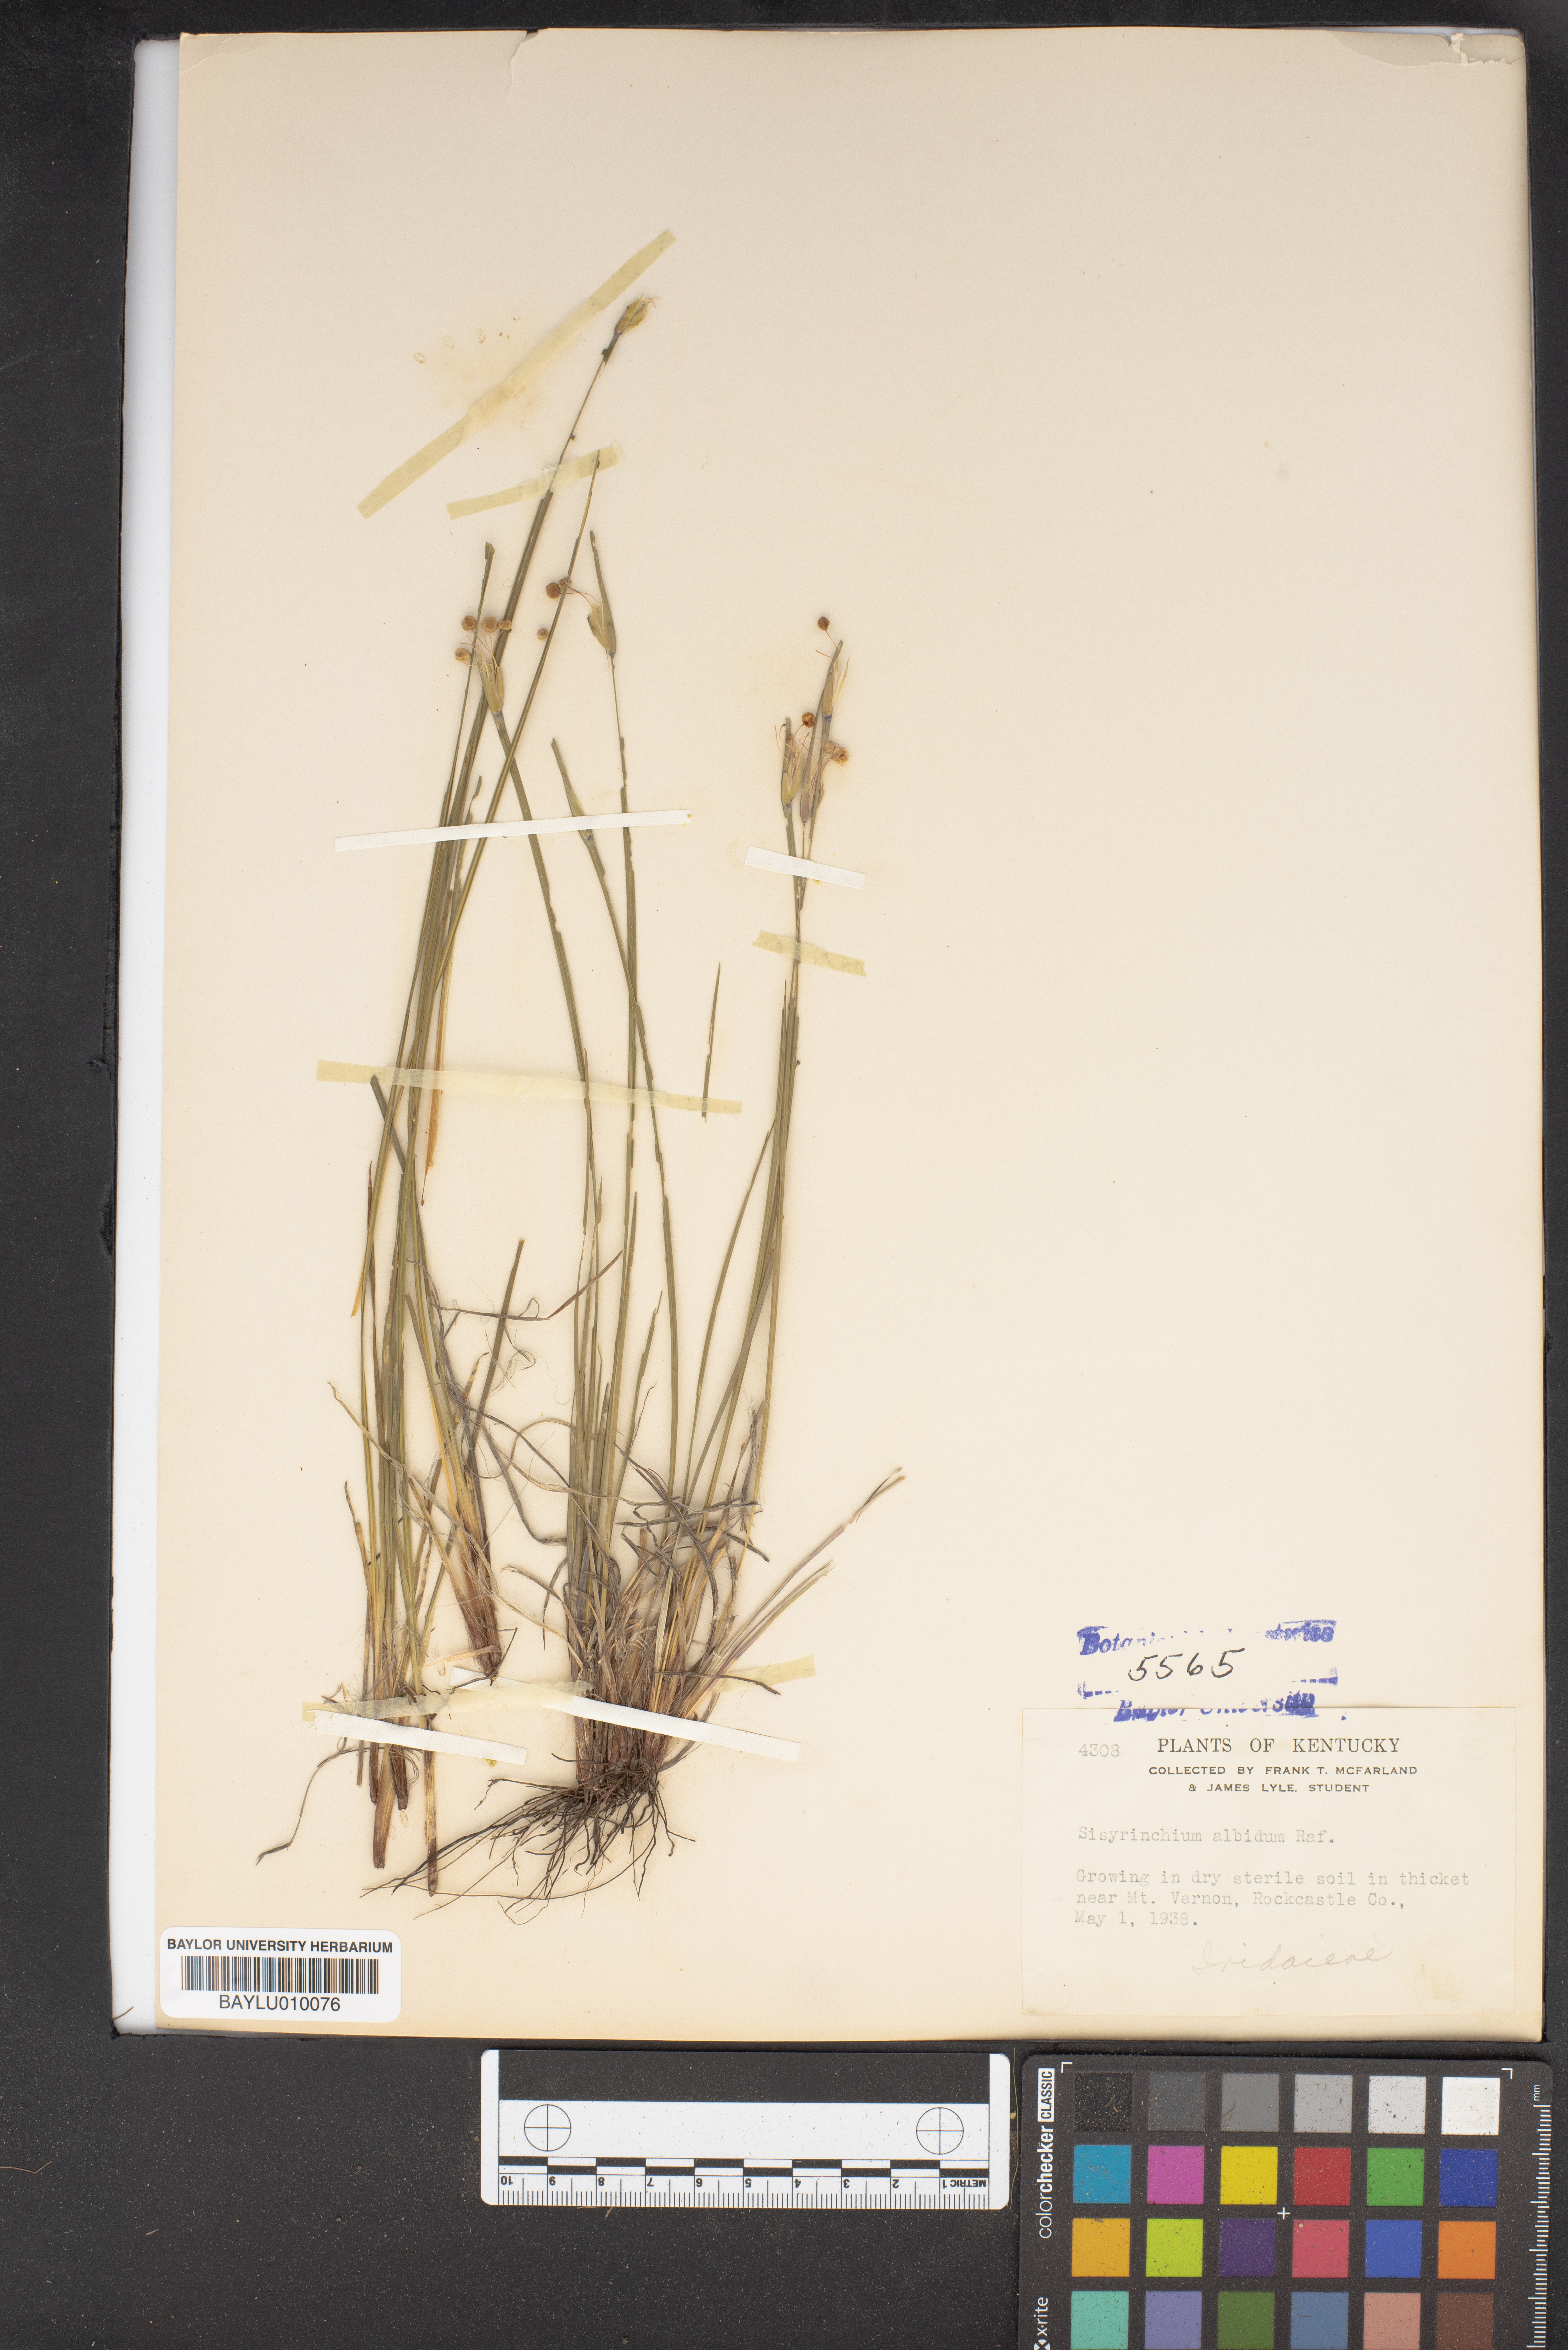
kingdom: Plantae
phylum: Tracheophyta
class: Liliopsida
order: Asparagales
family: Iridaceae
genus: Sisyrinchium
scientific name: Sisyrinchium albidum
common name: Pale blue-eyed-grass
